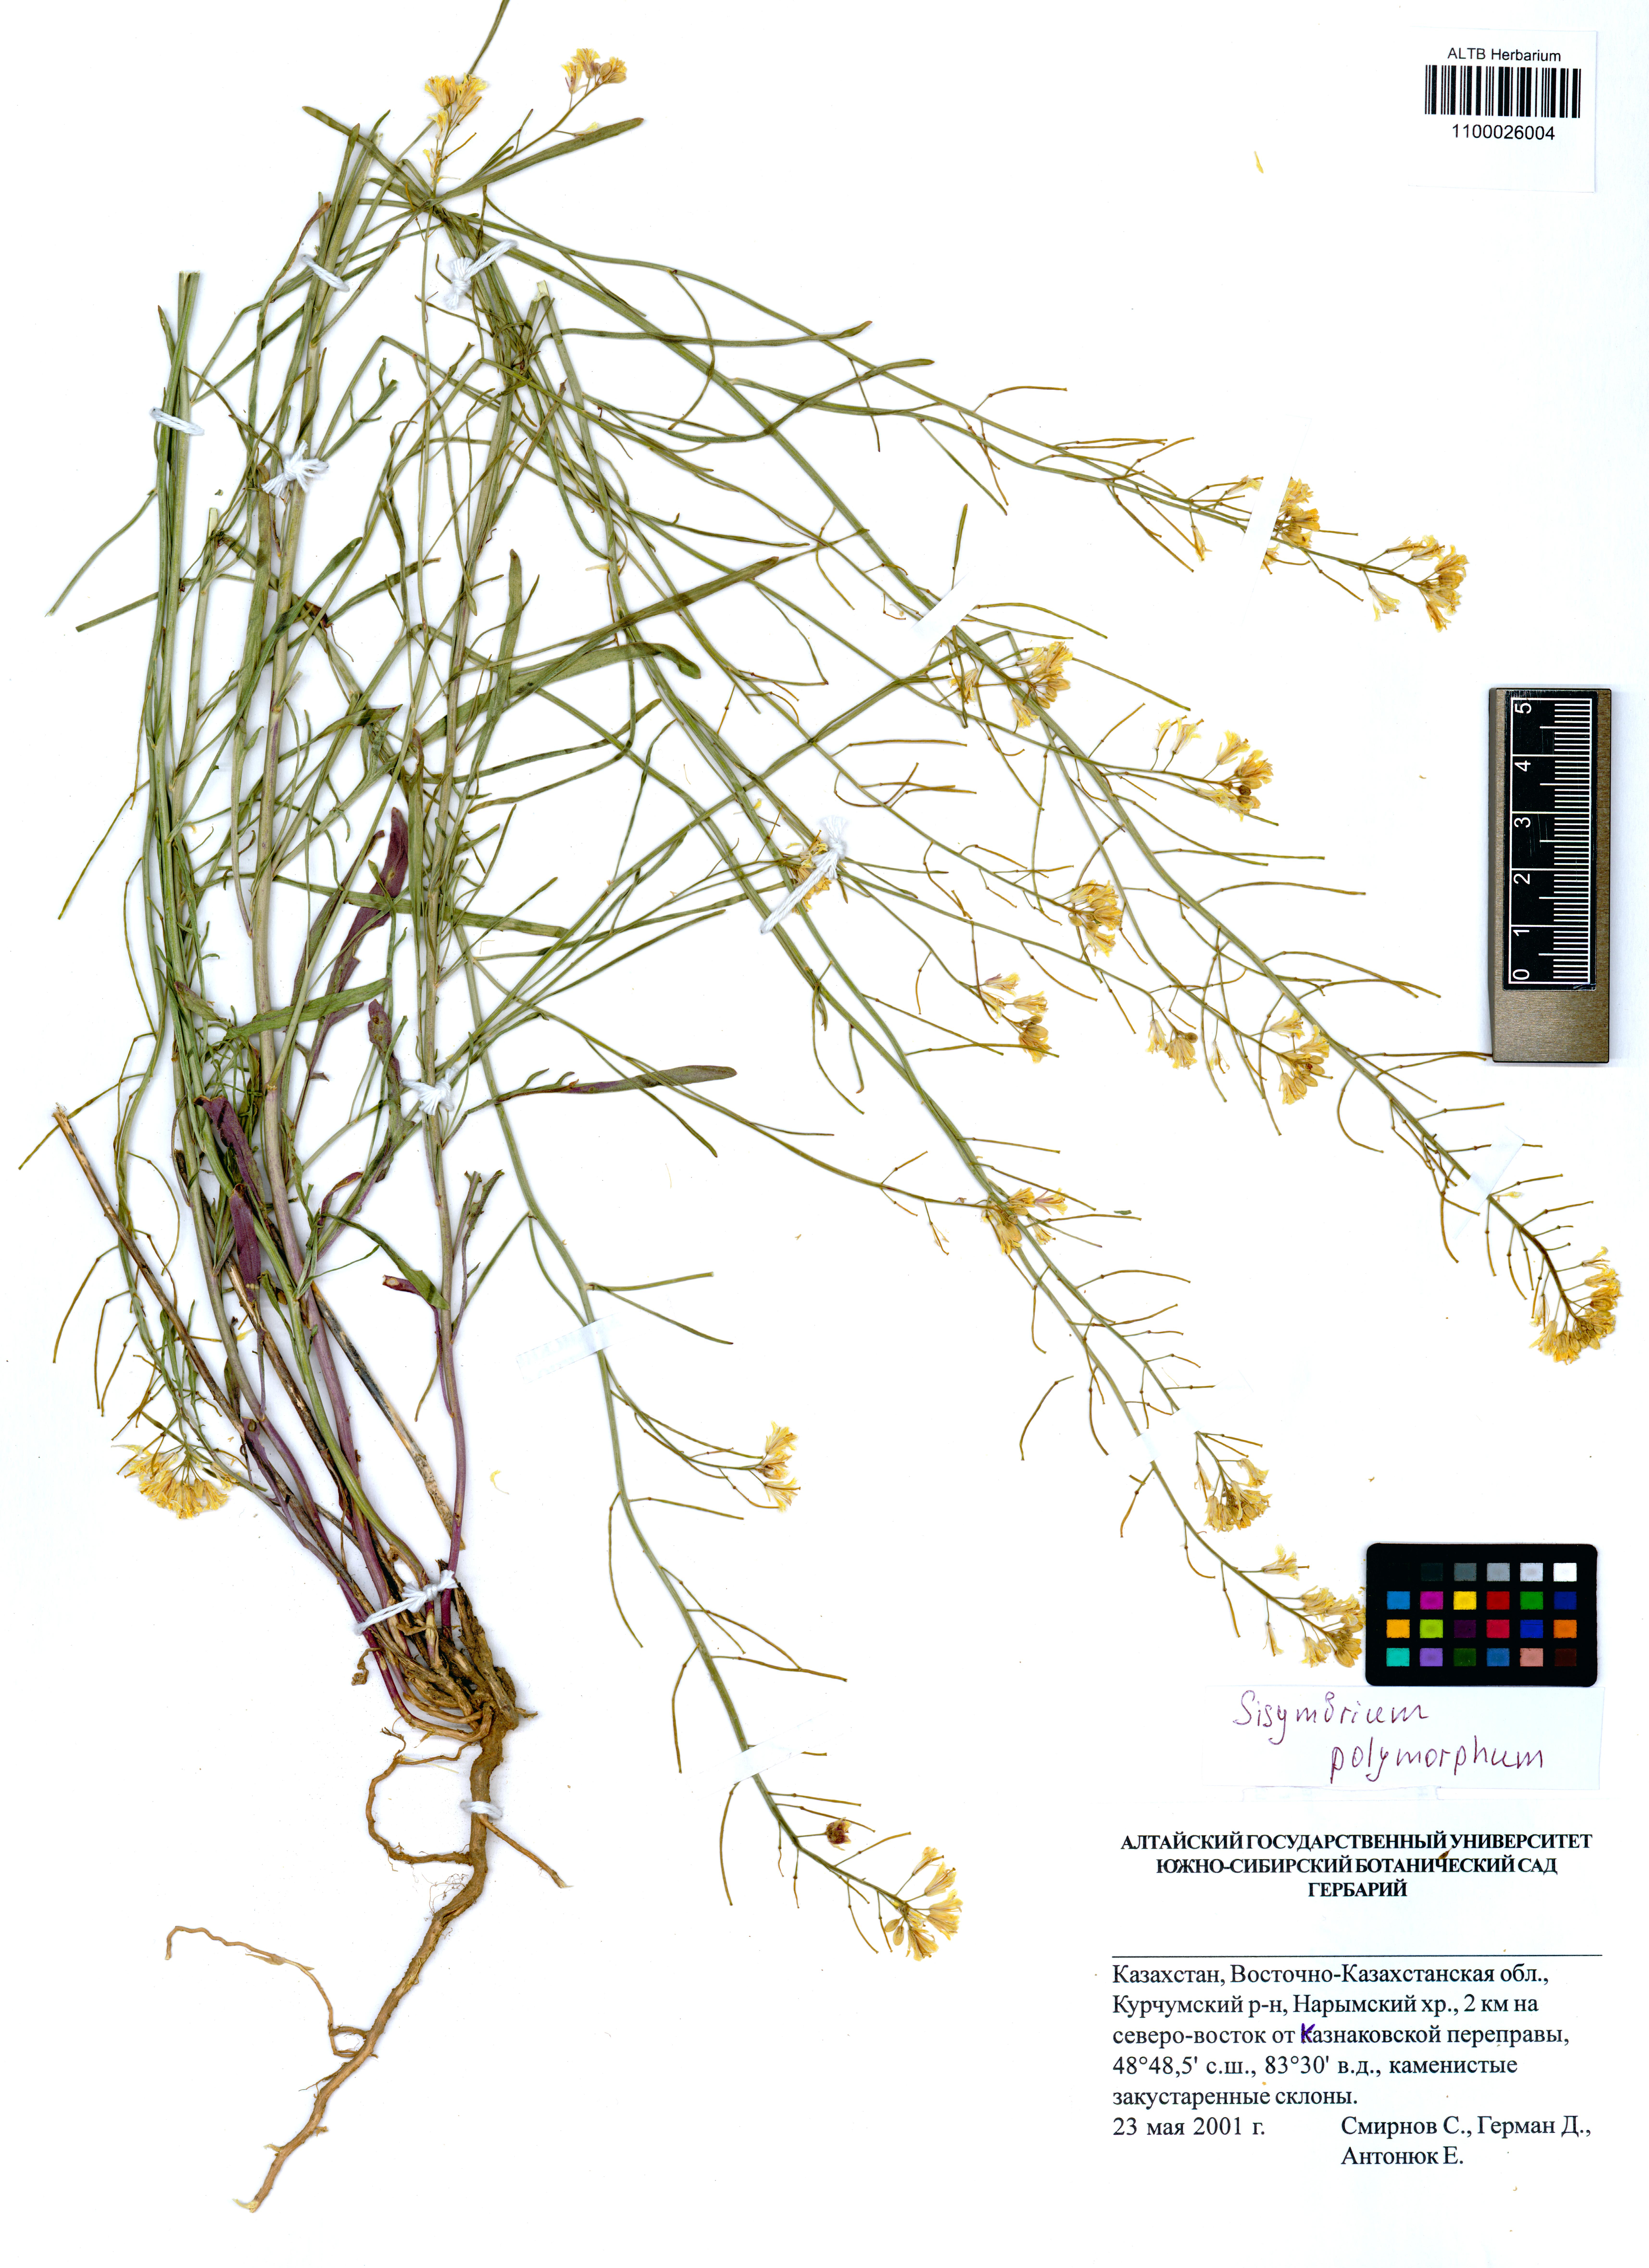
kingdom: Plantae
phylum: Tracheophyta
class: Magnoliopsida
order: Brassicales
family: Brassicaceae
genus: Sisymbrium
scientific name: Sisymbrium polymorphum
